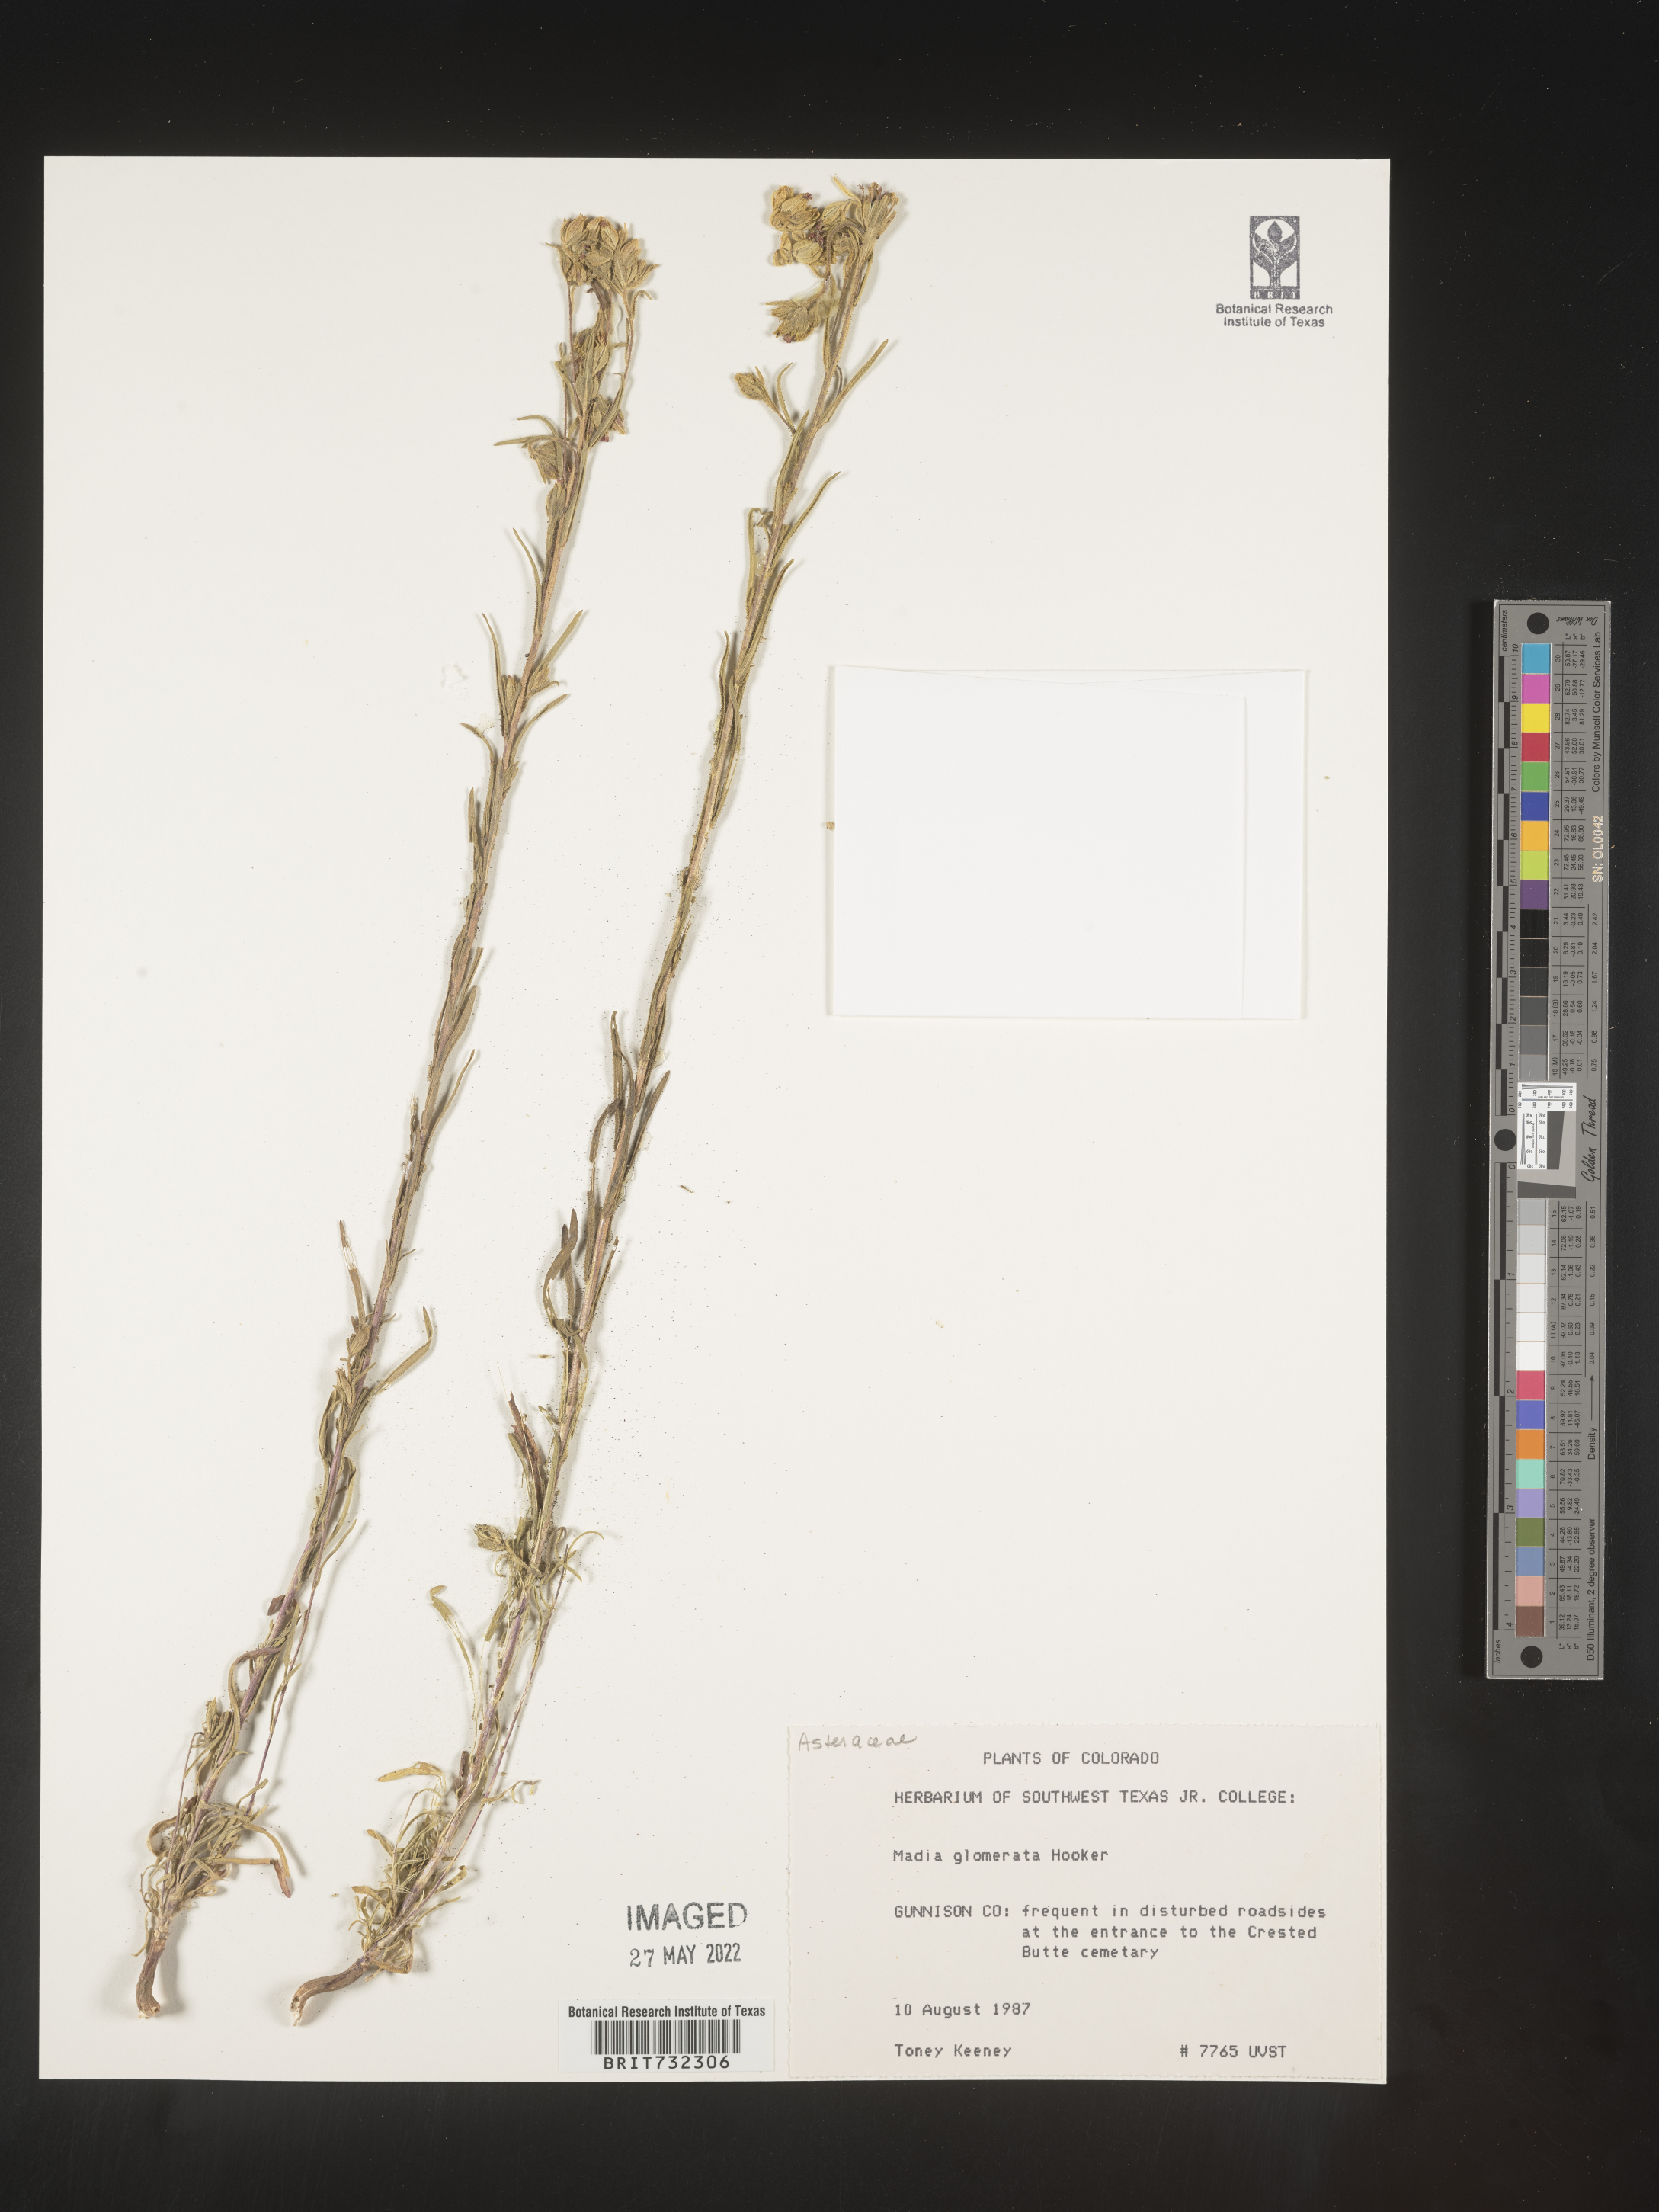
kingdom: Plantae
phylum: Tracheophyta
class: Magnoliopsida
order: Asterales
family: Asteraceae
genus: Madia
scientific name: Madia glomerata
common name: Mountain tarweed
